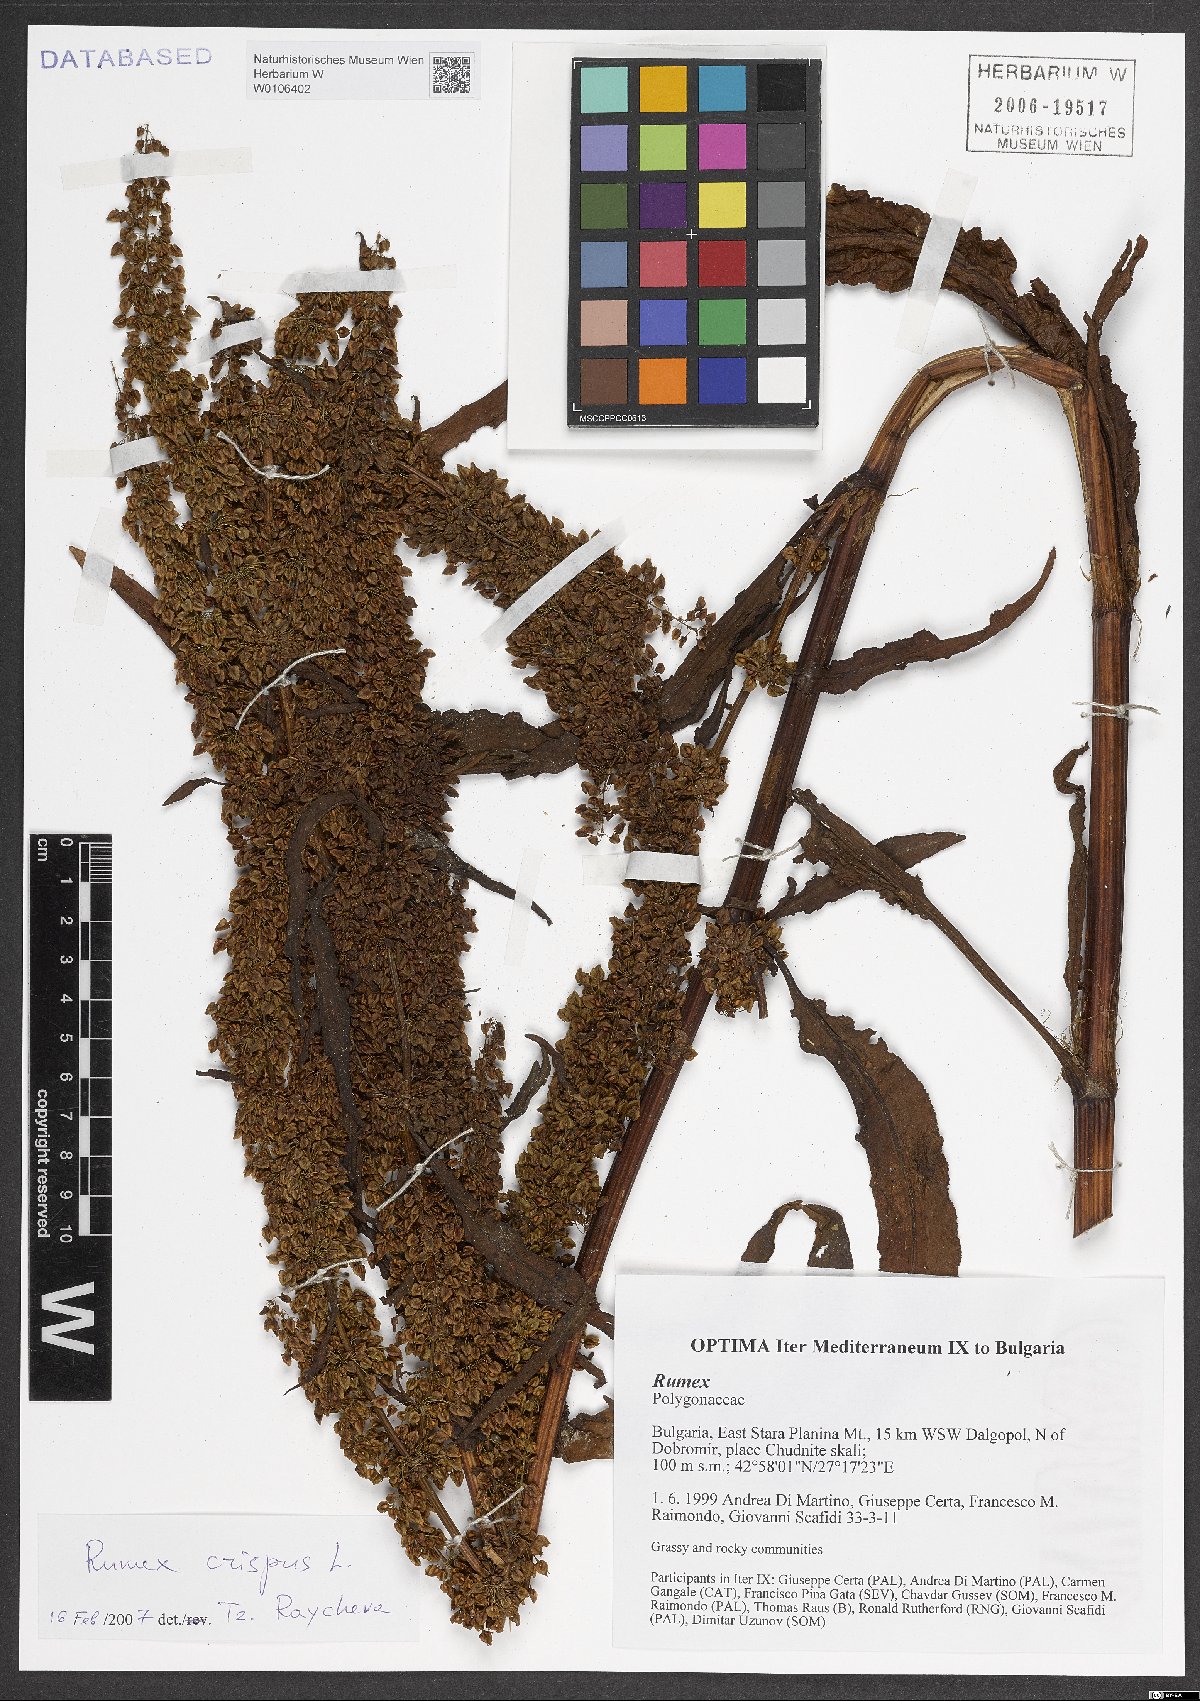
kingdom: Plantae
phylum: Tracheophyta
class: Magnoliopsida
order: Caryophyllales
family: Polygonaceae
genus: Rumex
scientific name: Rumex crispus
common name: Curled dock
